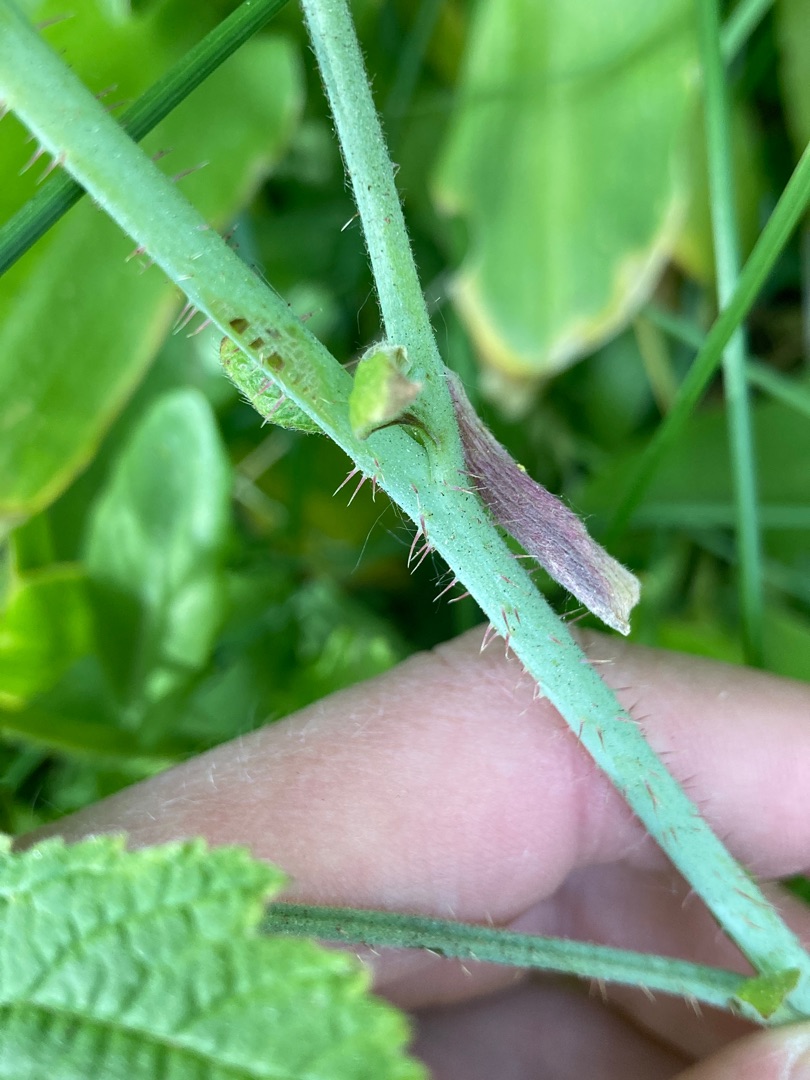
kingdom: Plantae
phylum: Tracheophyta
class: Magnoliopsida
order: Rosales
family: Rosaceae
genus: Rubus
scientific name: Rubus caesius
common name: Korbær
